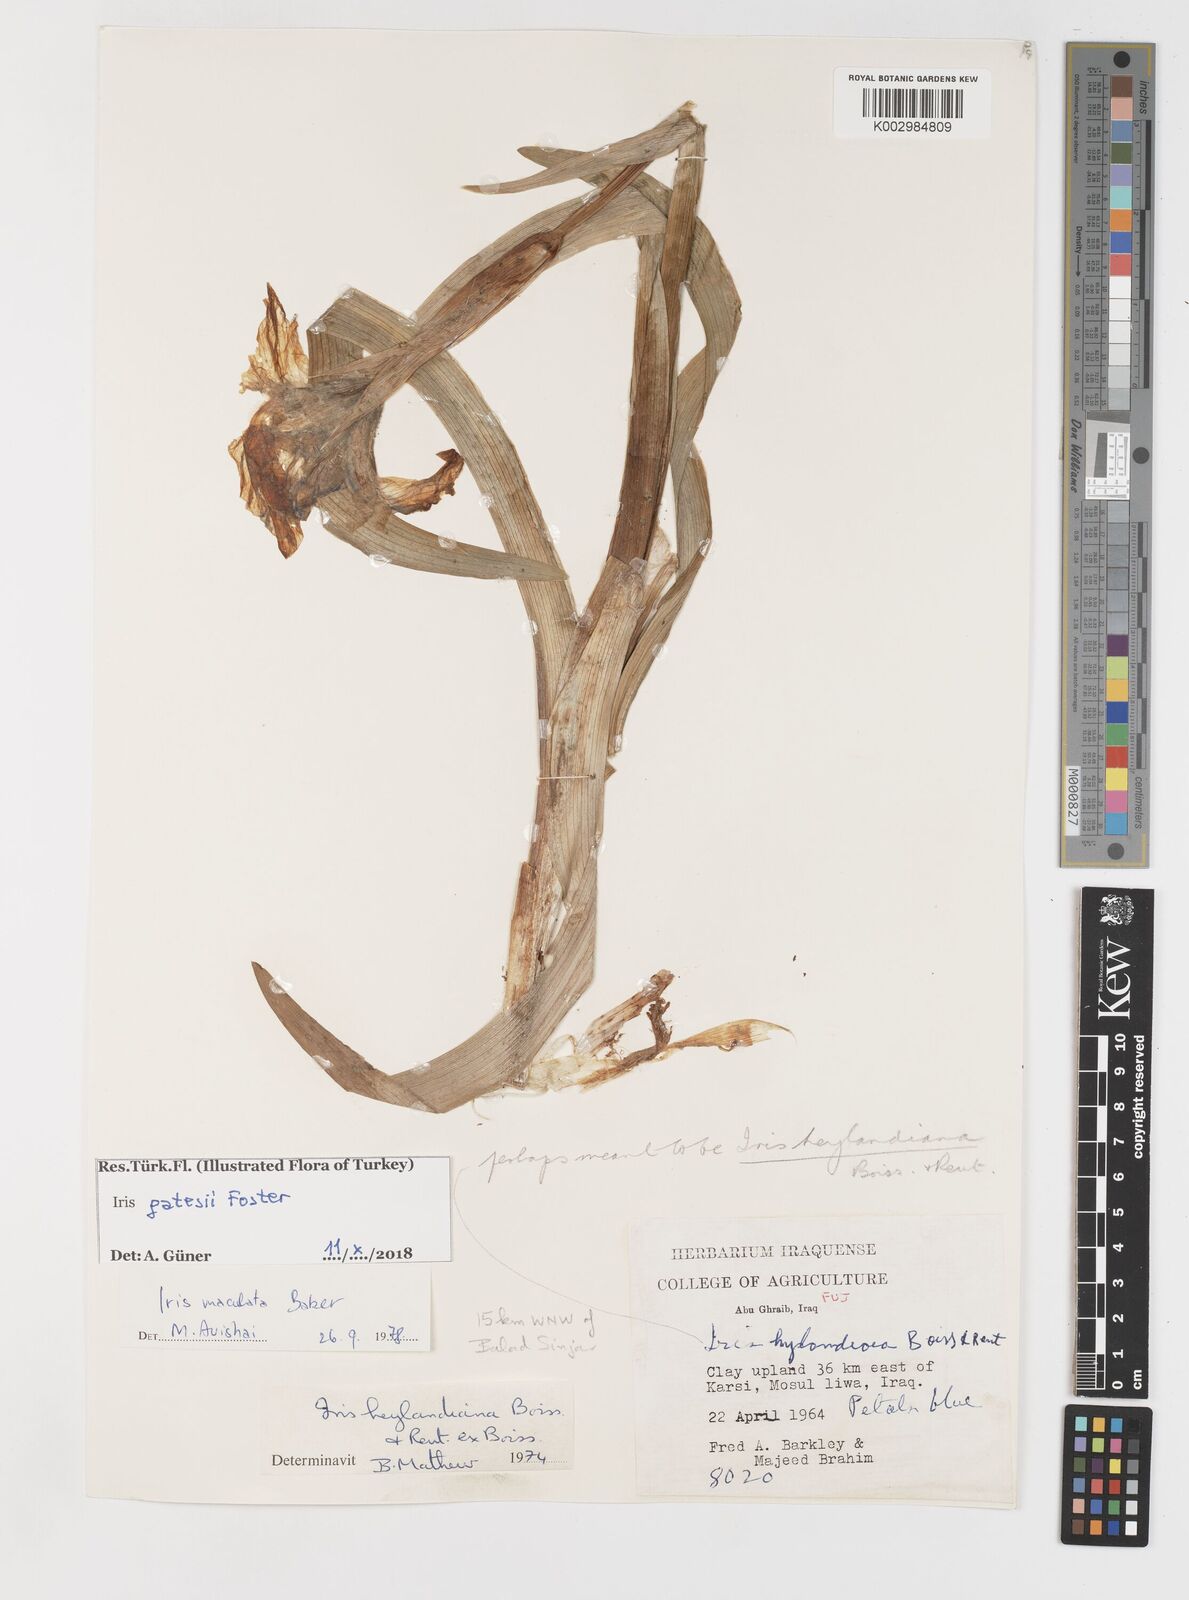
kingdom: Plantae
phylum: Tracheophyta
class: Liliopsida
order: Asparagales
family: Iridaceae
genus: Iris
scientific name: Iris gatesii
